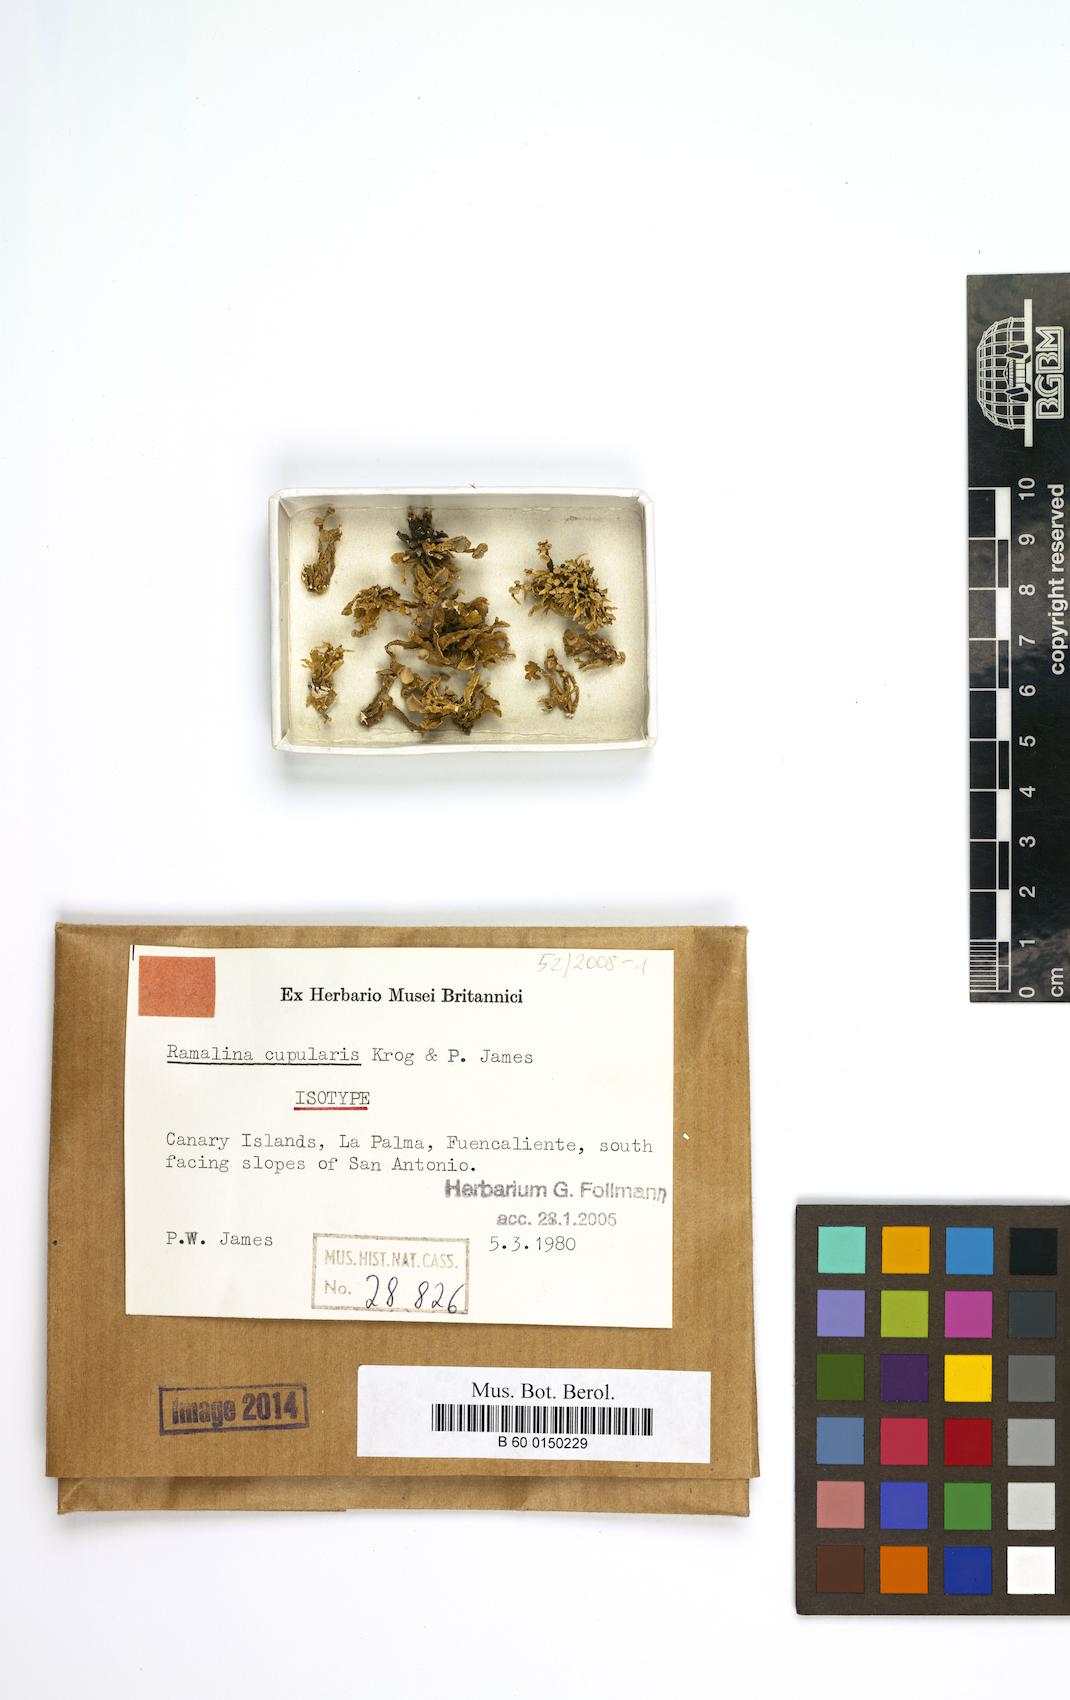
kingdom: Fungi
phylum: Ascomycota
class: Lecanoromycetes
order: Lecanorales
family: Ramalinaceae
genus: Niebla
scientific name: Niebla cupularis
